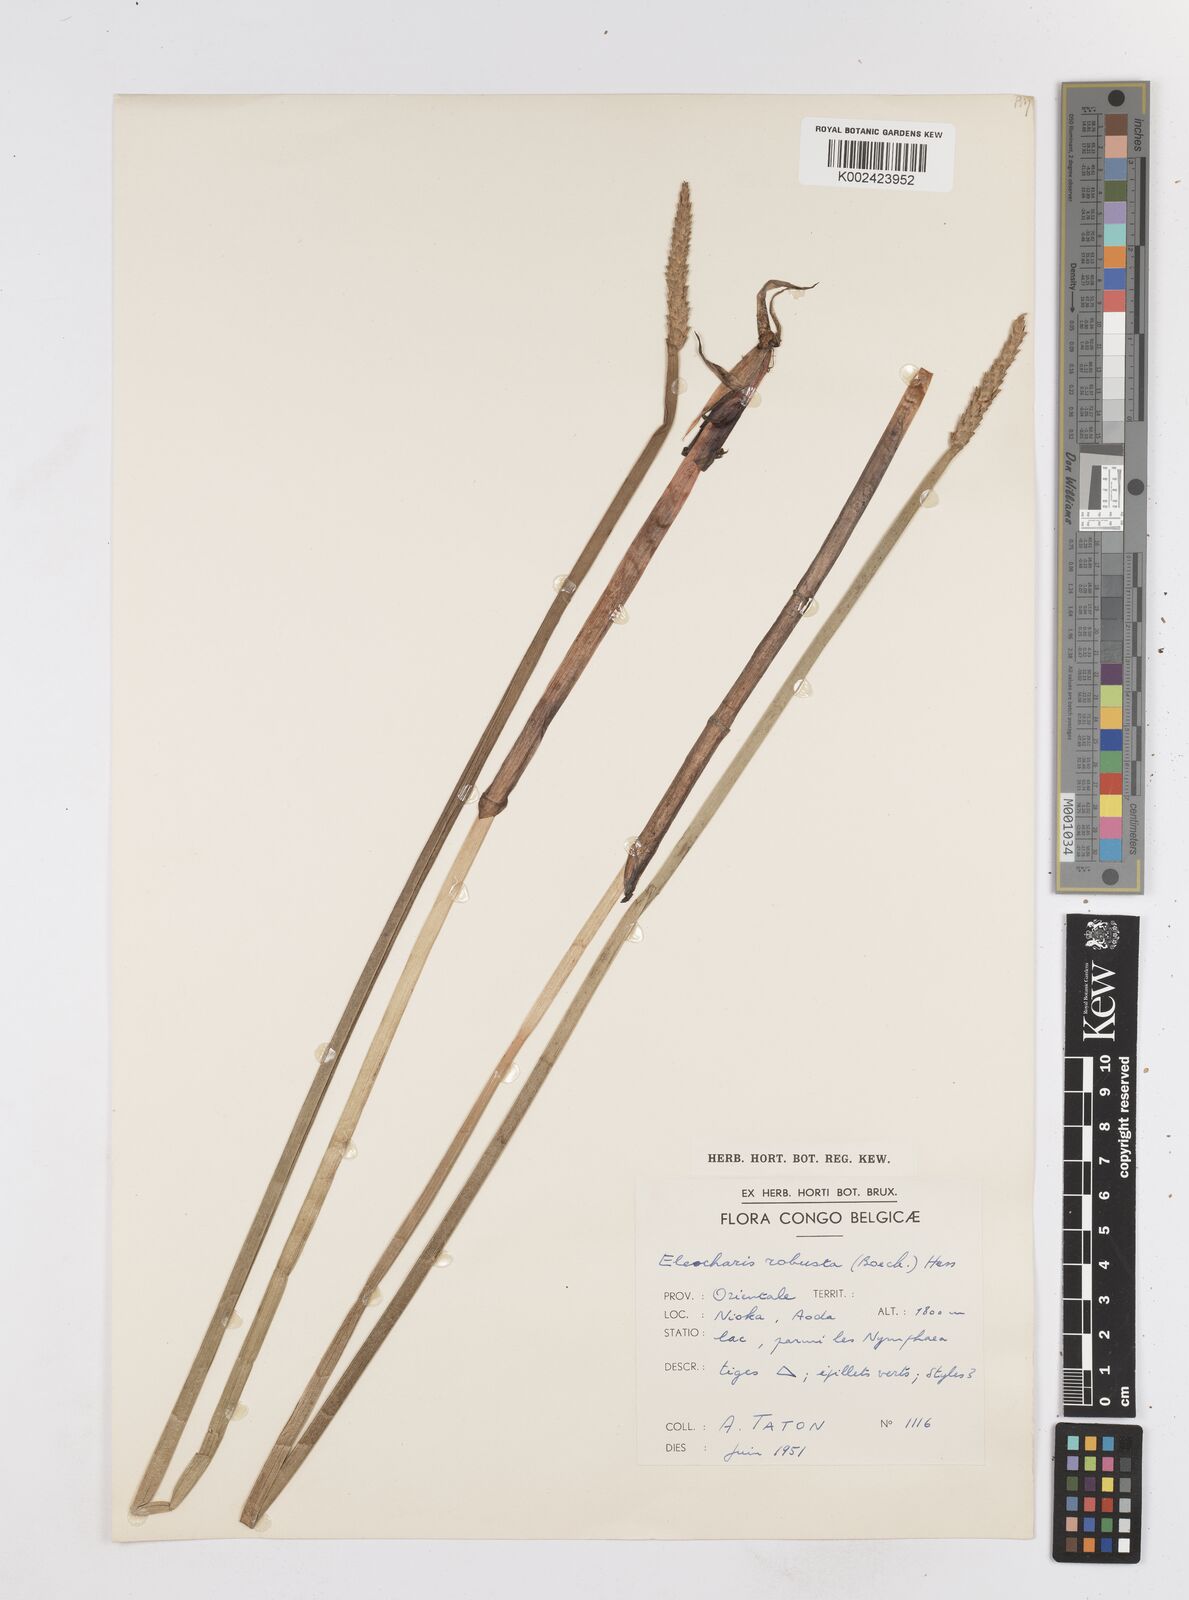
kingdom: Plantae
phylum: Tracheophyta
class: Liliopsida
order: Poales
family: Cyperaceae
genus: Eleocharis
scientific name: Eleocharis acutangula
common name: Acute spikerush
